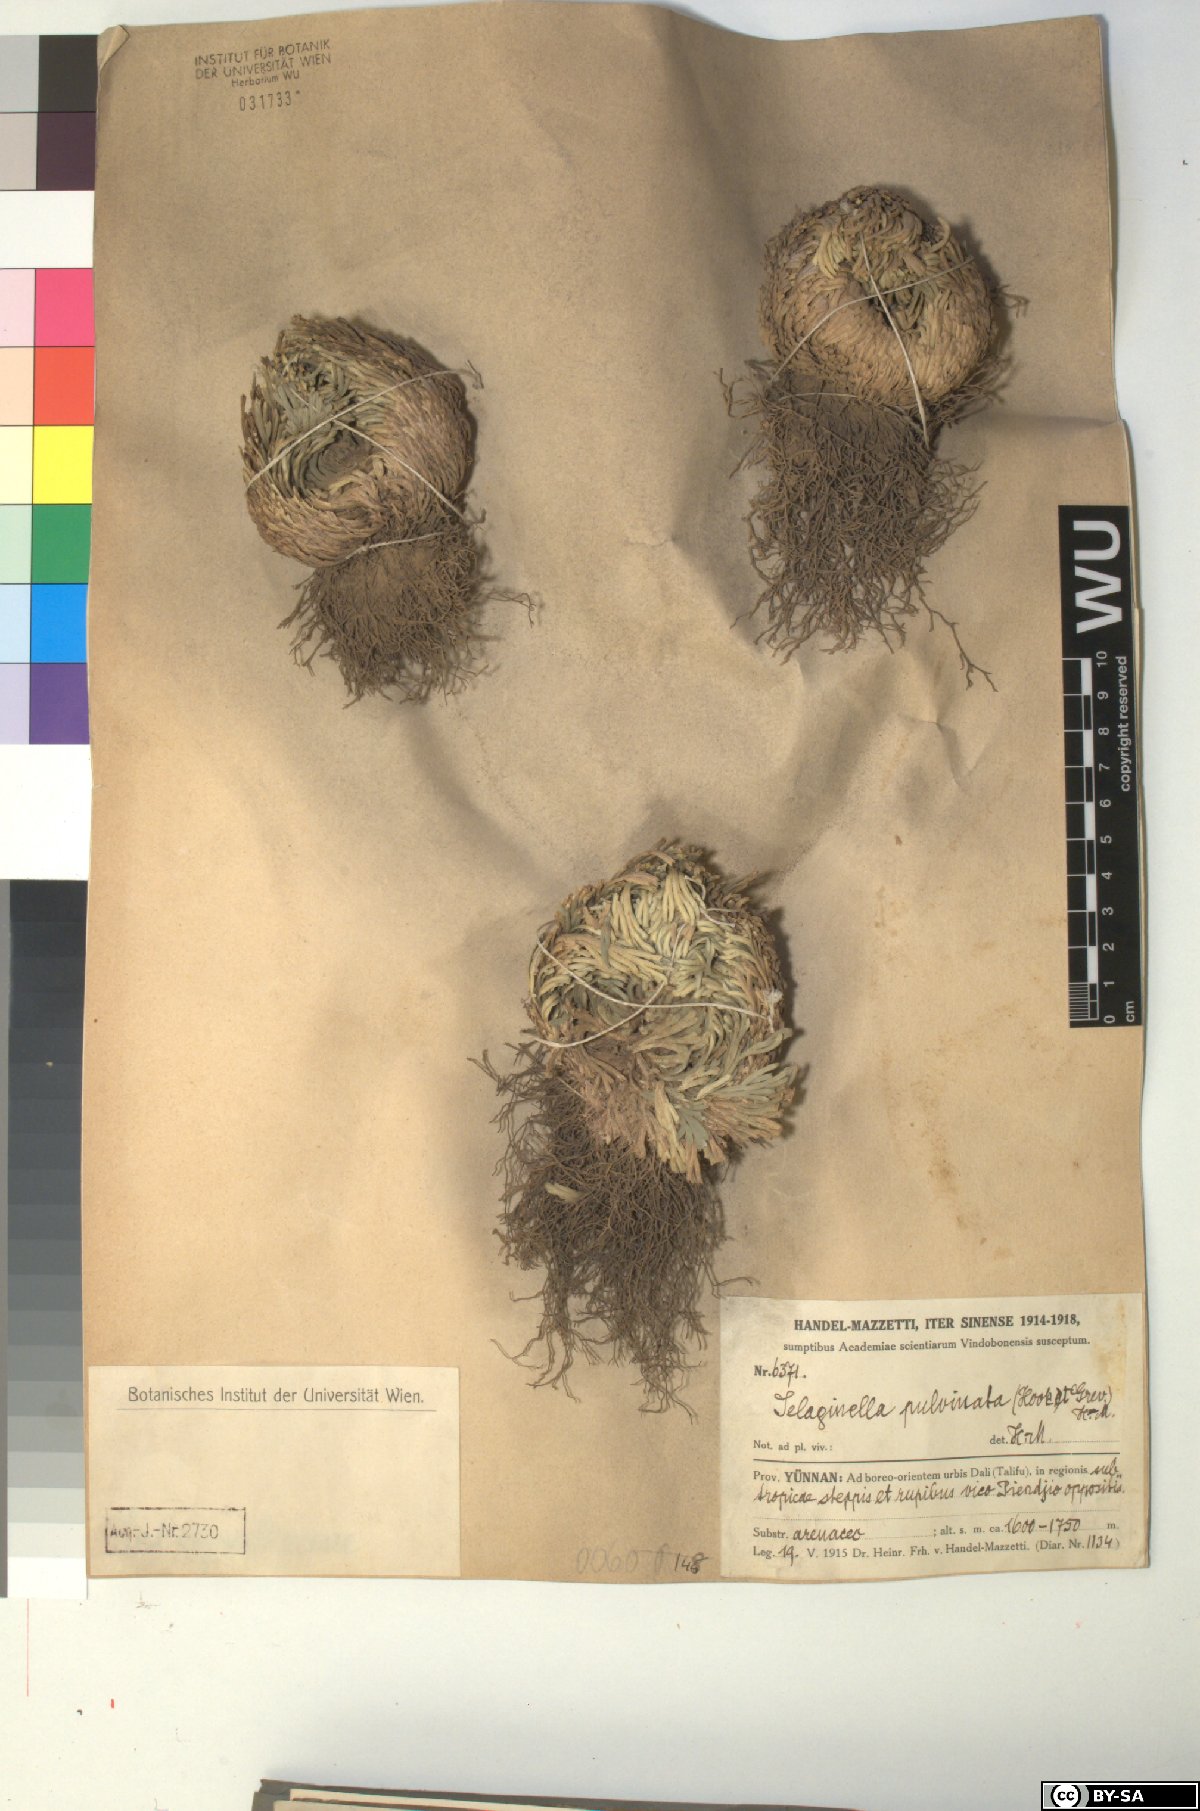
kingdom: Plantae
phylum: Tracheophyta
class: Lycopodiopsida
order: Selaginellales
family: Selaginellaceae
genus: Selaginella
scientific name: Selaginella pulvinata
